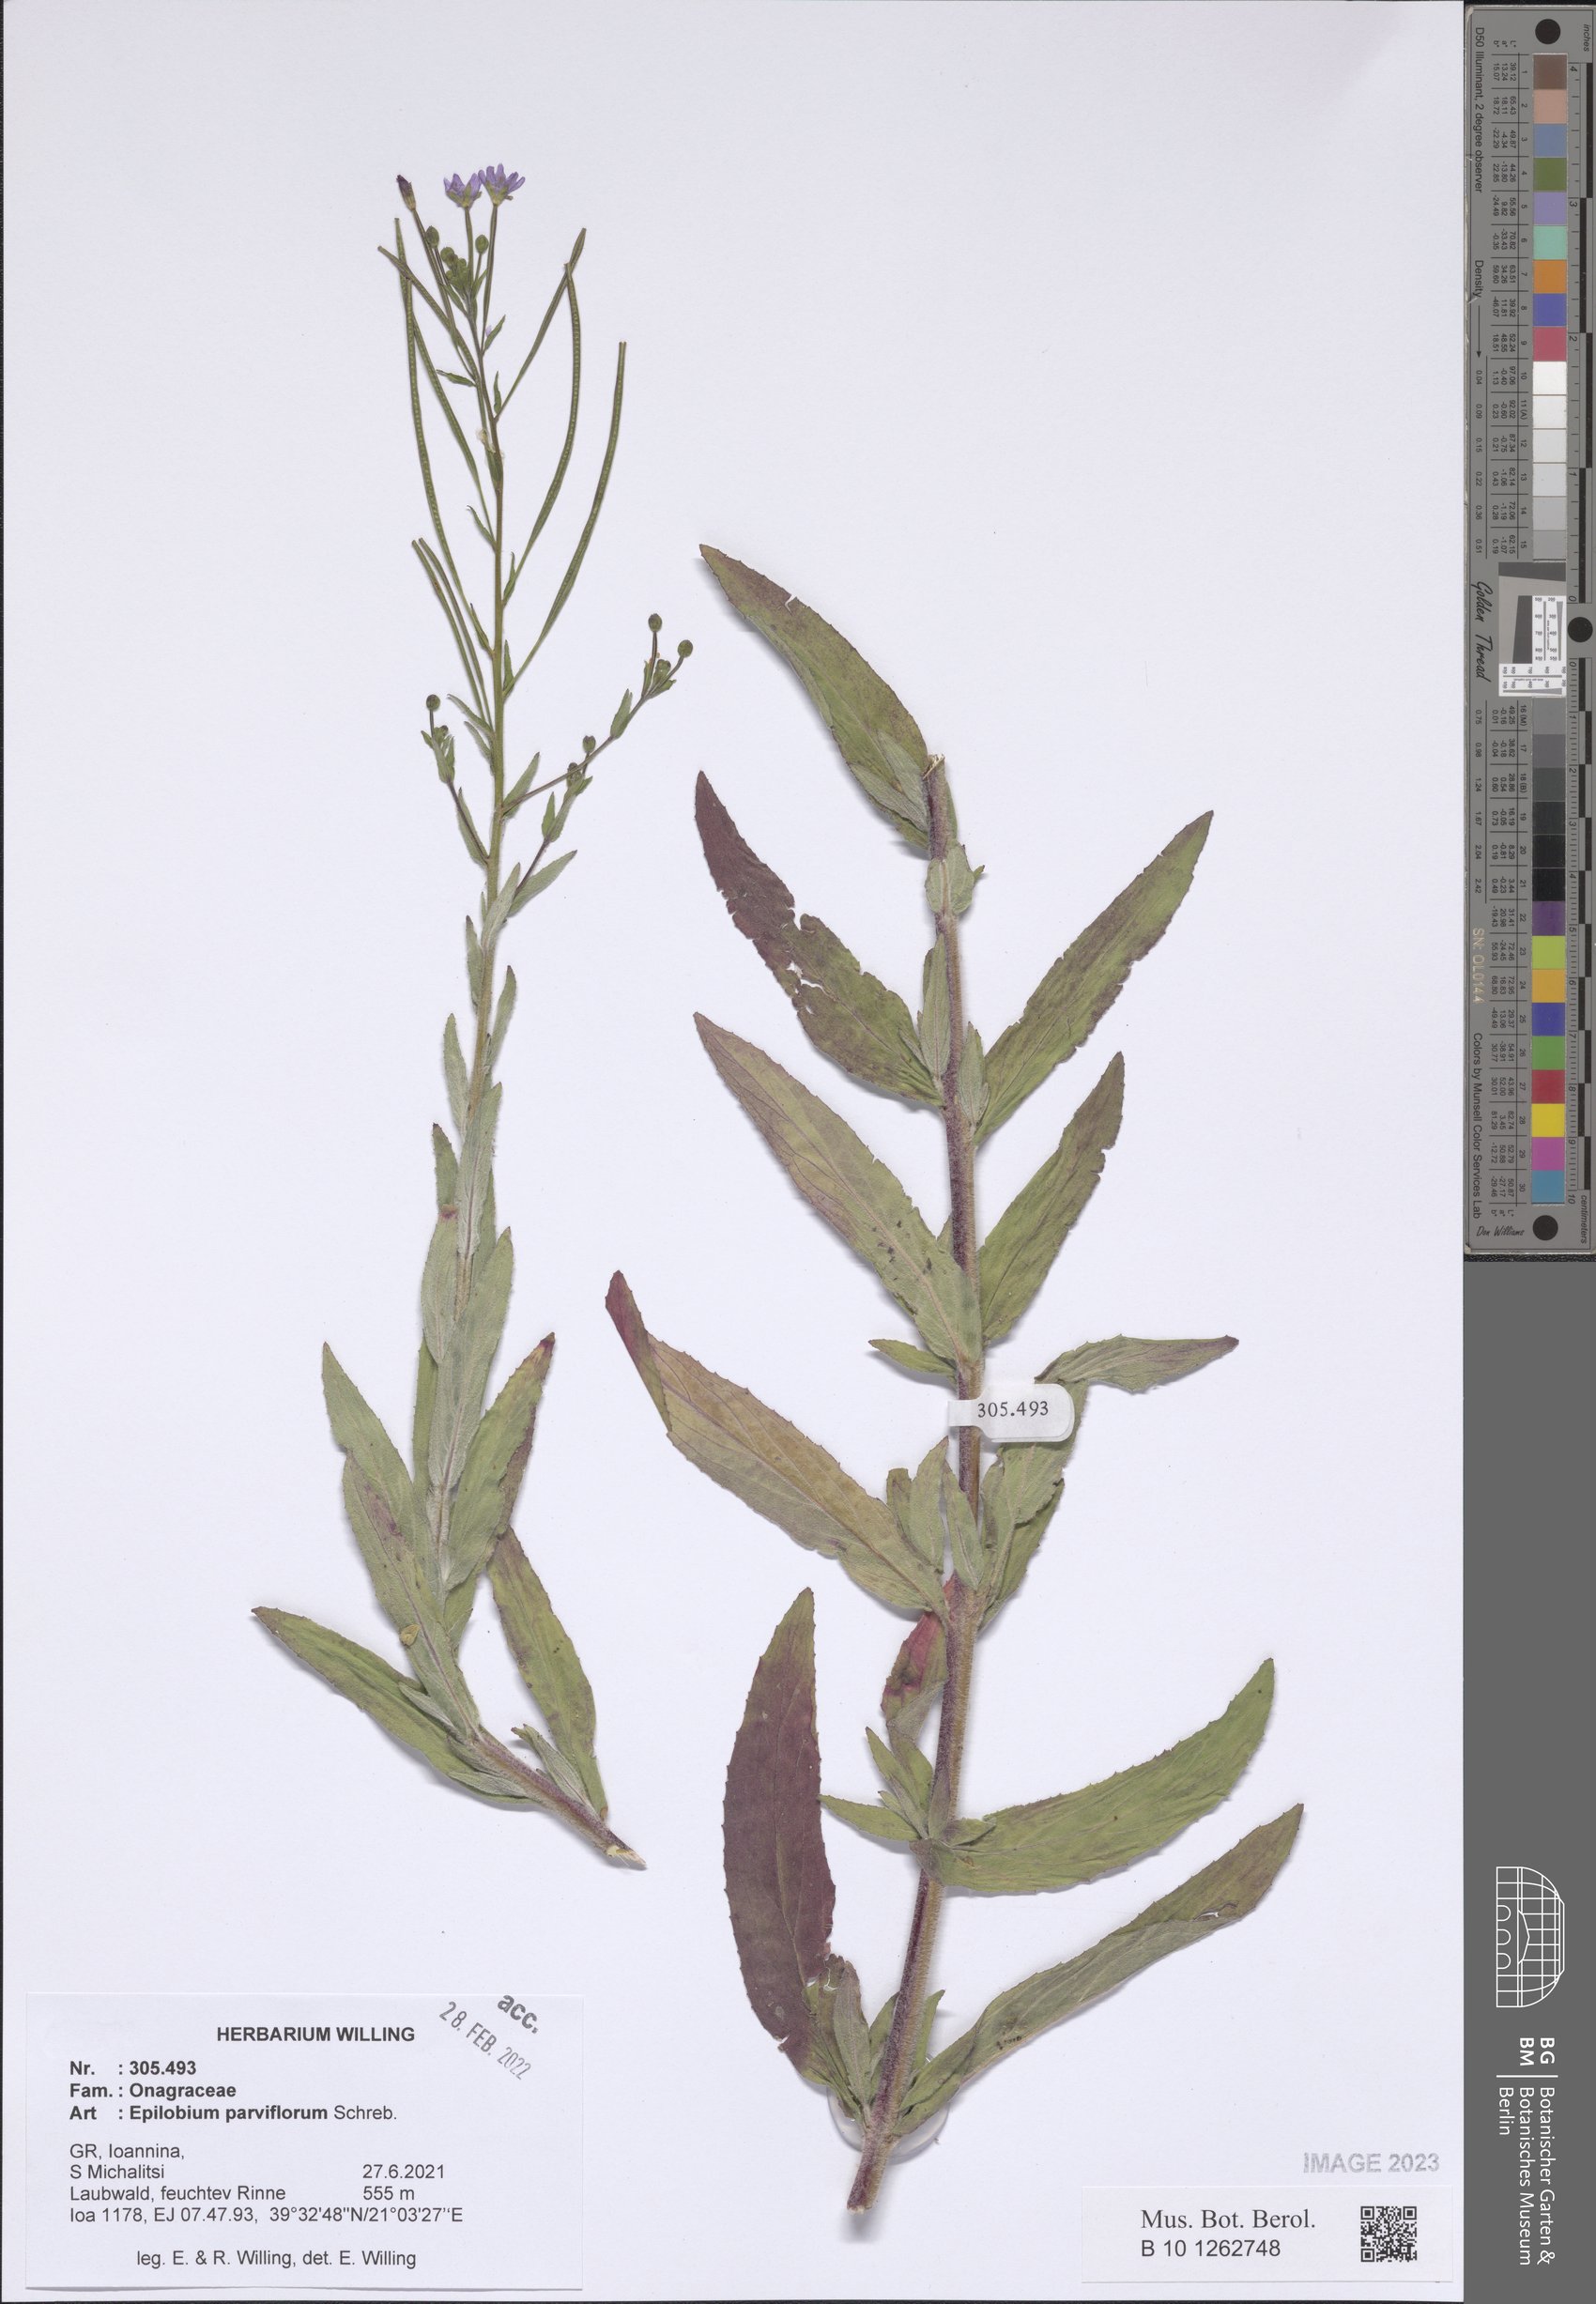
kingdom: Plantae
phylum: Tracheophyta
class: Magnoliopsida
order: Myrtales
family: Onagraceae
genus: Epilobium
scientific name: Epilobium parviflorum
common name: Hoary willowherb
